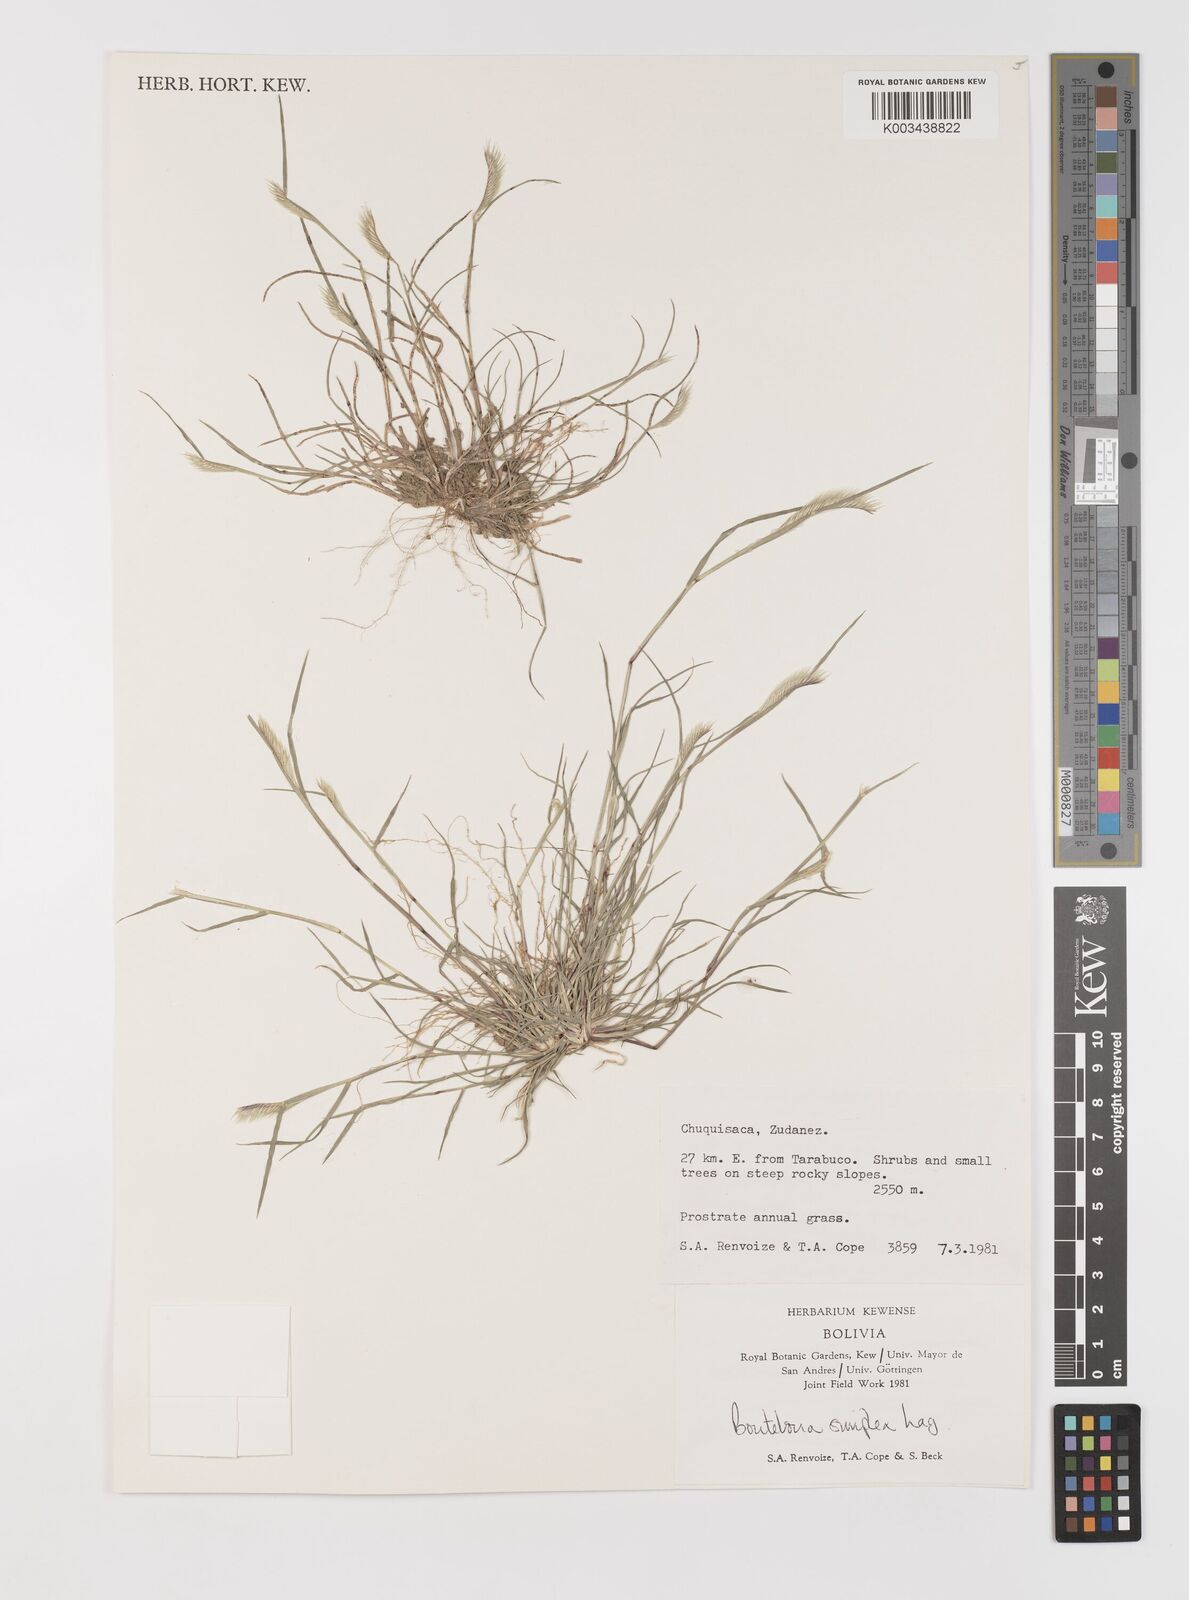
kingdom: Plantae
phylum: Tracheophyta
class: Liliopsida
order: Poales
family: Poaceae
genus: Bouteloua
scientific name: Bouteloua simplex
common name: Mat grama
